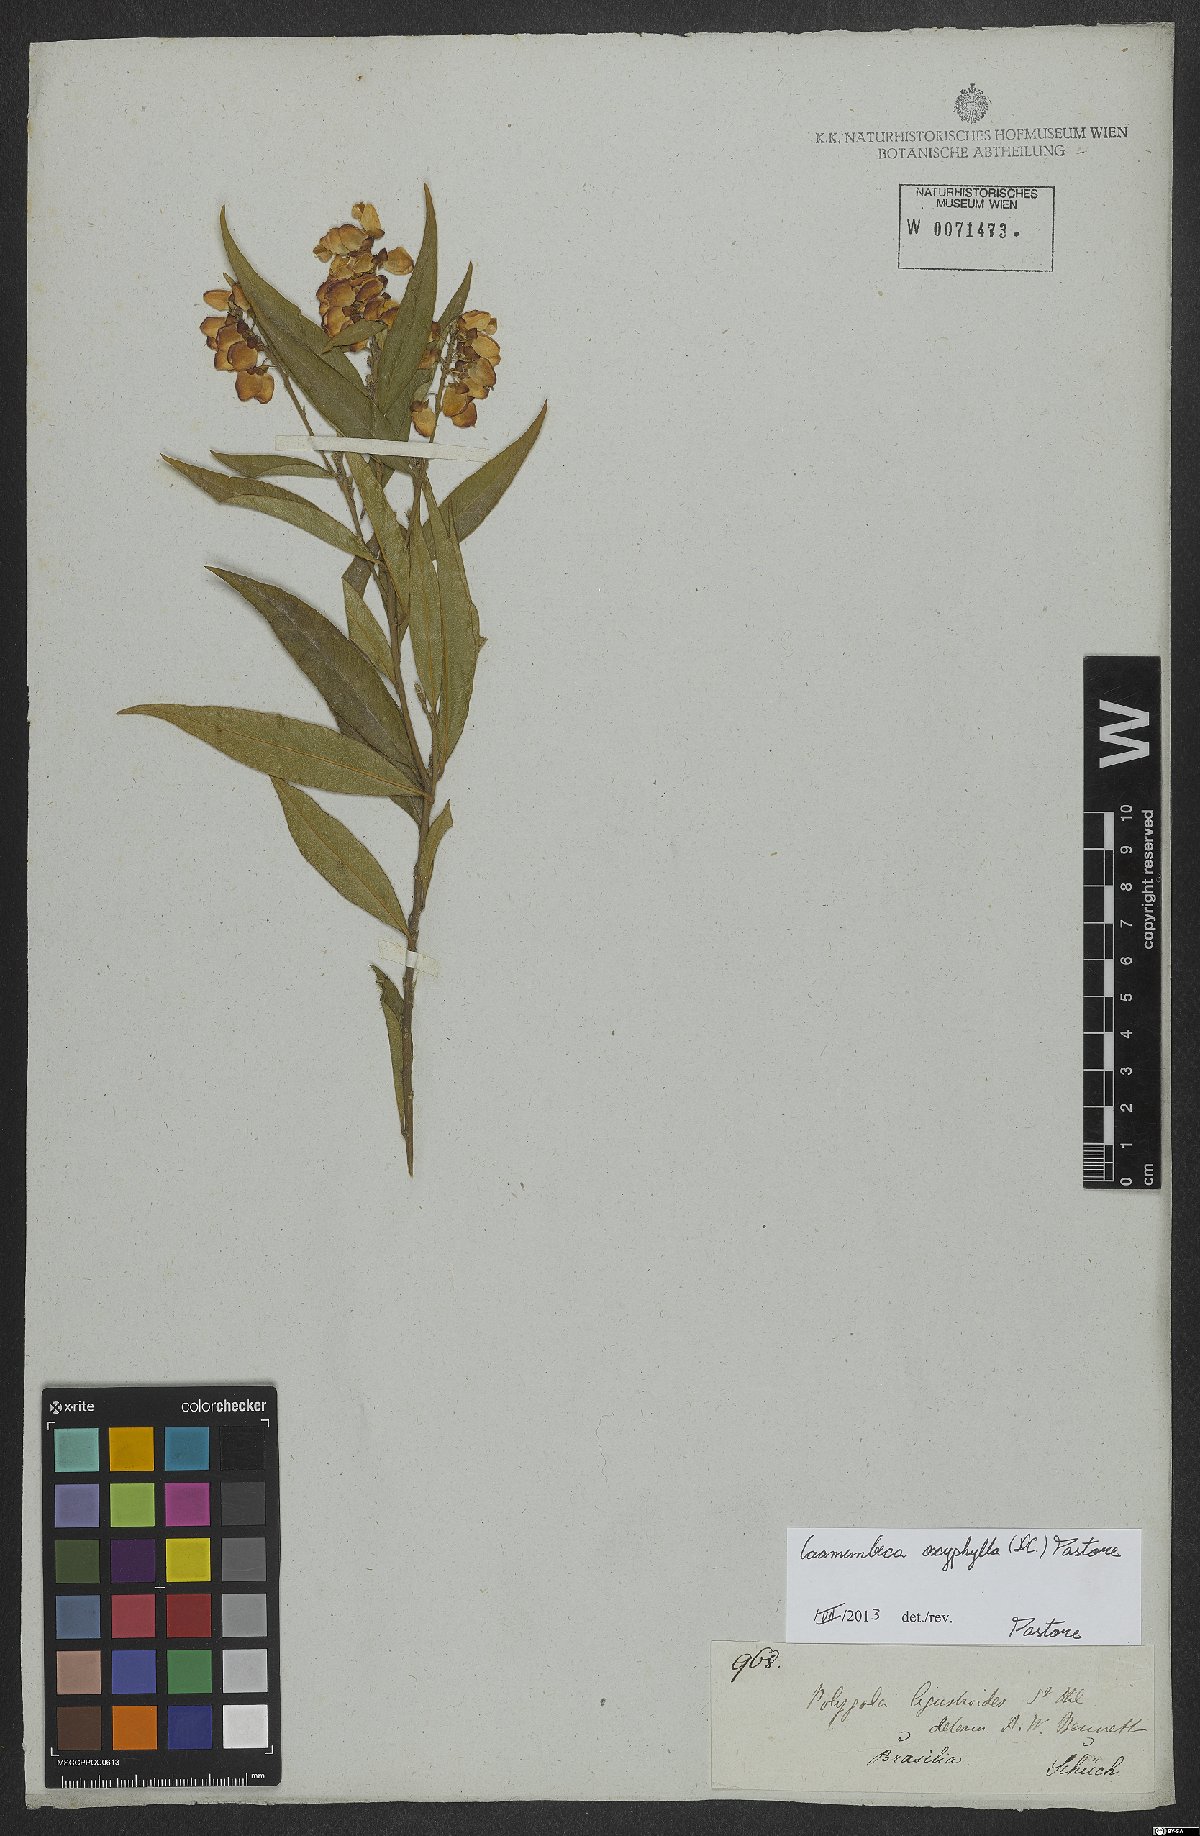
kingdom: Plantae
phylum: Tracheophyta
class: Magnoliopsida
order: Fabales
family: Polygalaceae
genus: Caamembeca
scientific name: Caamembeca oxyphylla
